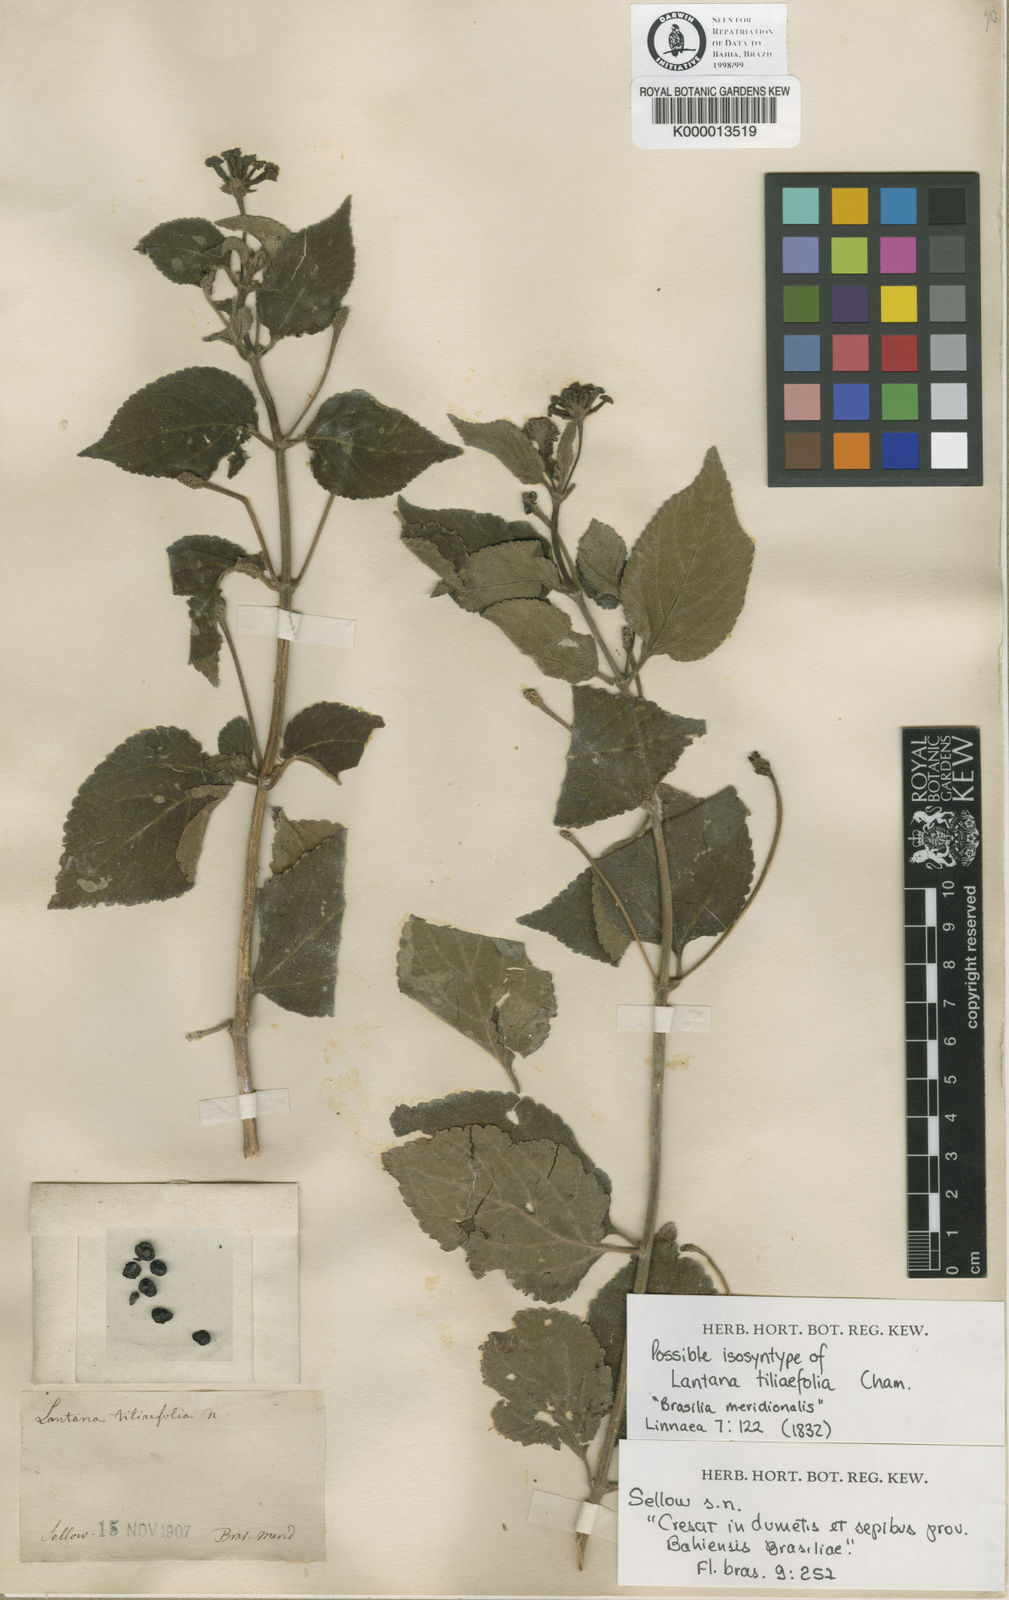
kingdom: Plantae
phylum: Tracheophyta
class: Magnoliopsida
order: Lamiales
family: Verbenaceae
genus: Lantana
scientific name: Lantana horrida
